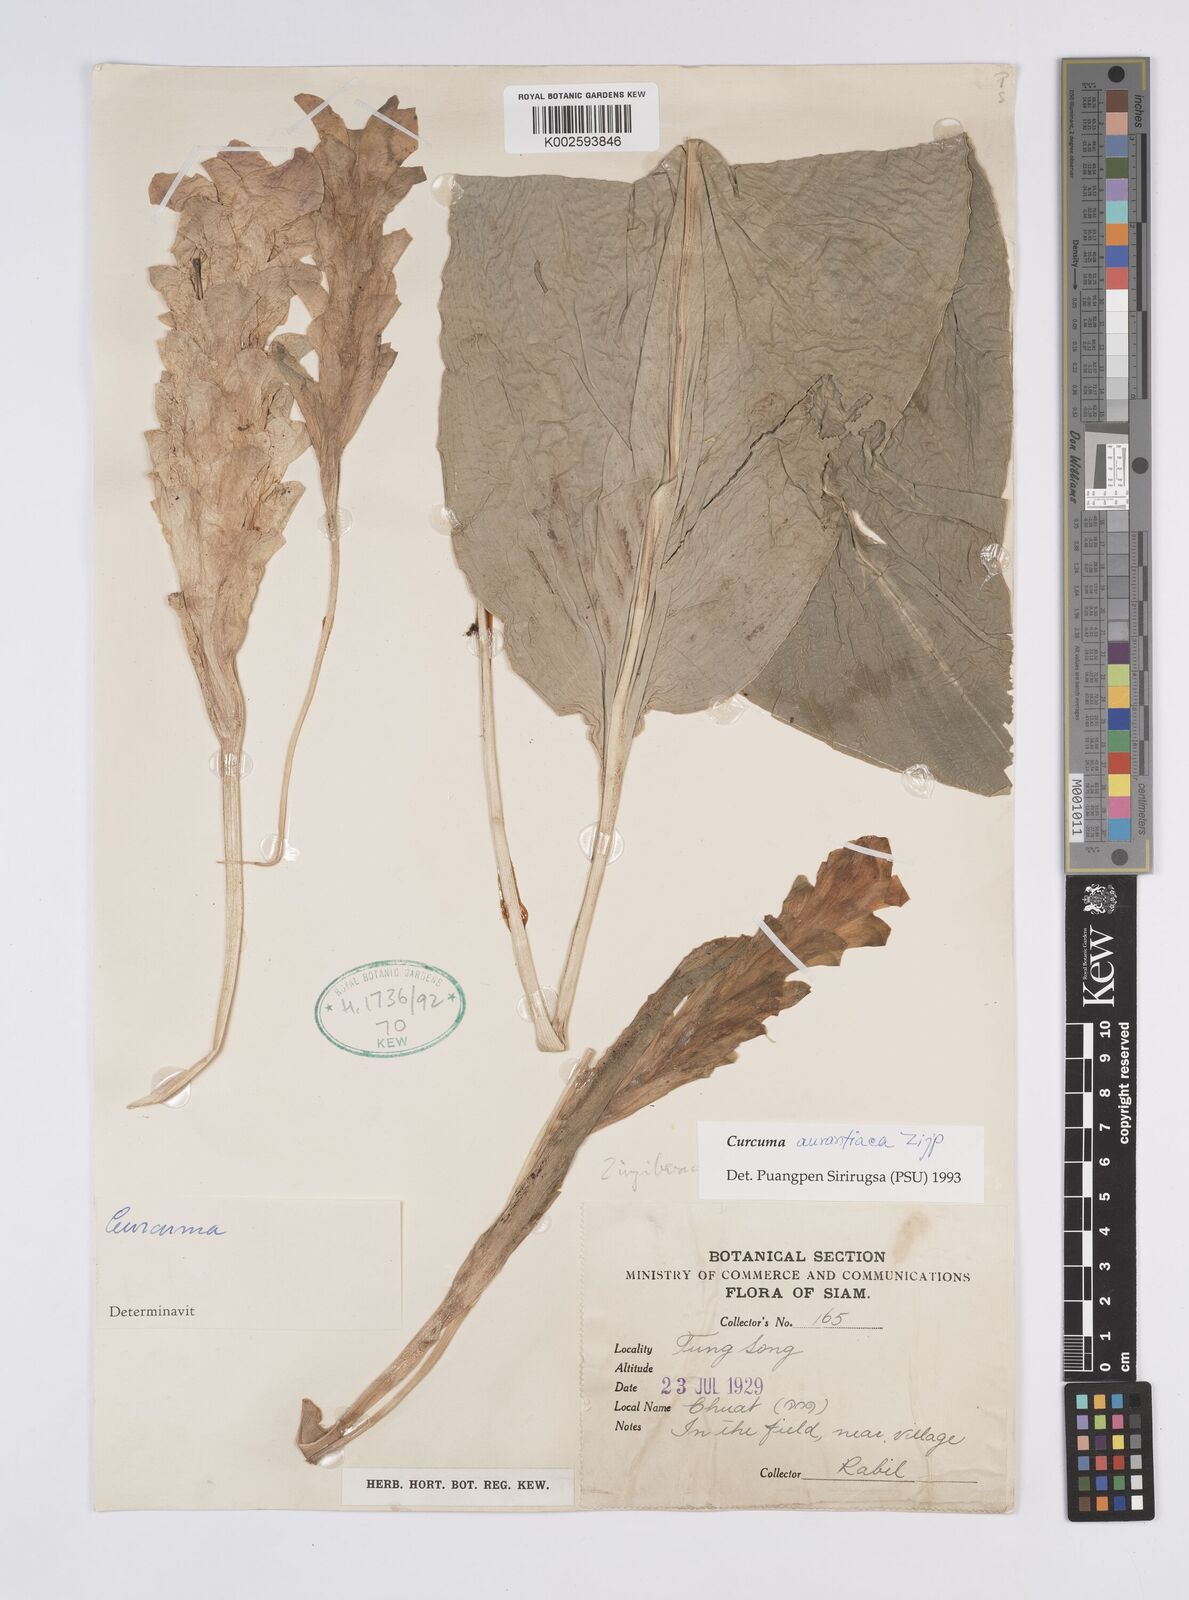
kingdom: Plantae
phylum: Tracheophyta
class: Liliopsida
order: Zingiberales
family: Zingiberaceae
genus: Curcuma
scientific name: Curcuma aurantiaca
